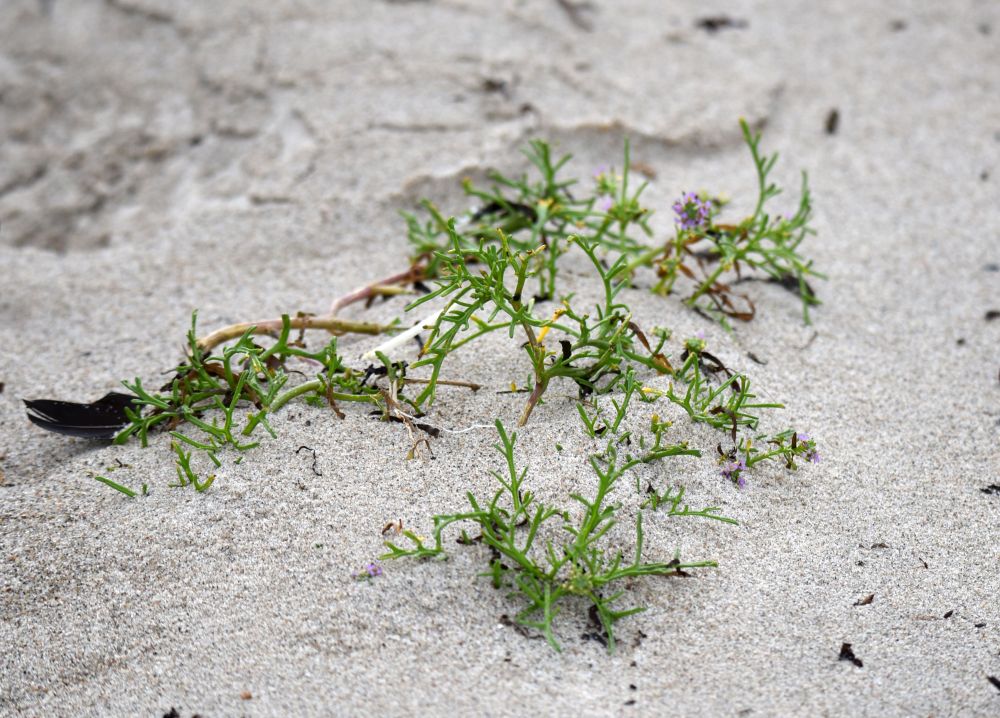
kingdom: Plantae
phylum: Tracheophyta
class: Magnoliopsida
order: Brassicales
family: Brassicaceae
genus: Cakile
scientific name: Cakile maritima
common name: Sea rocket
